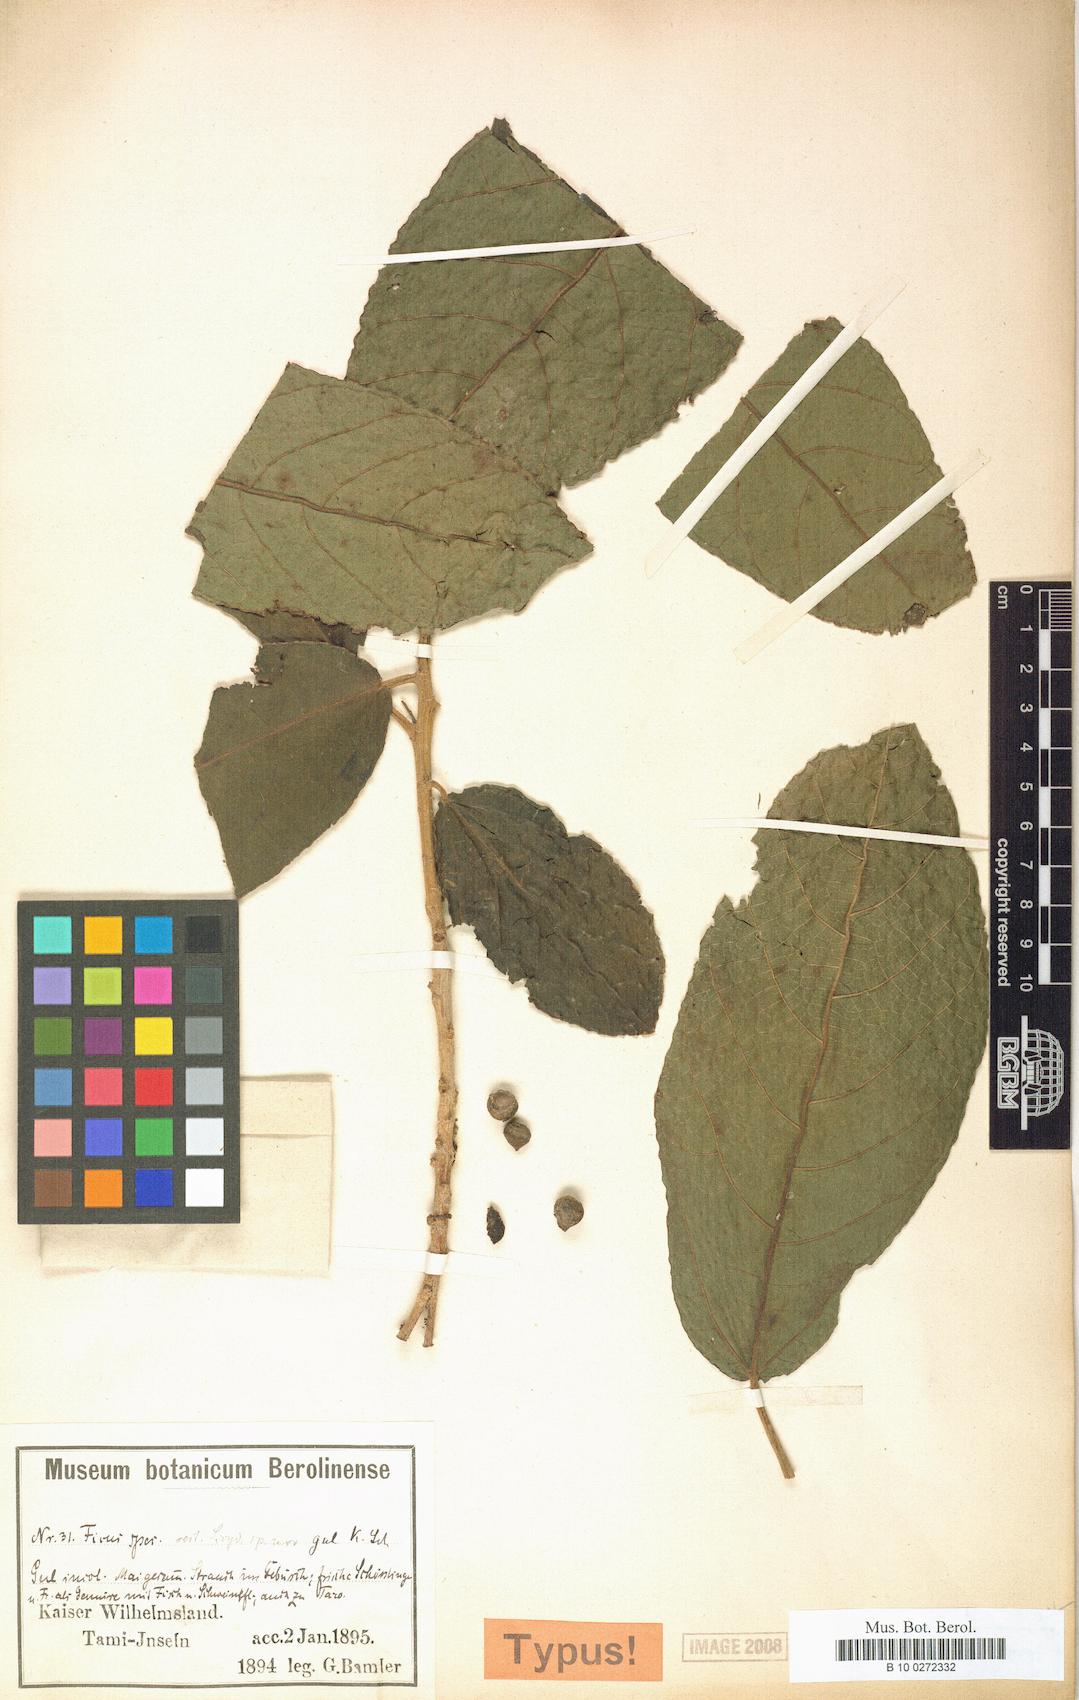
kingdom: Plantae
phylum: Tracheophyta
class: Magnoliopsida
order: Rosales
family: Moraceae
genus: Ficus
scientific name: Ficus gul
